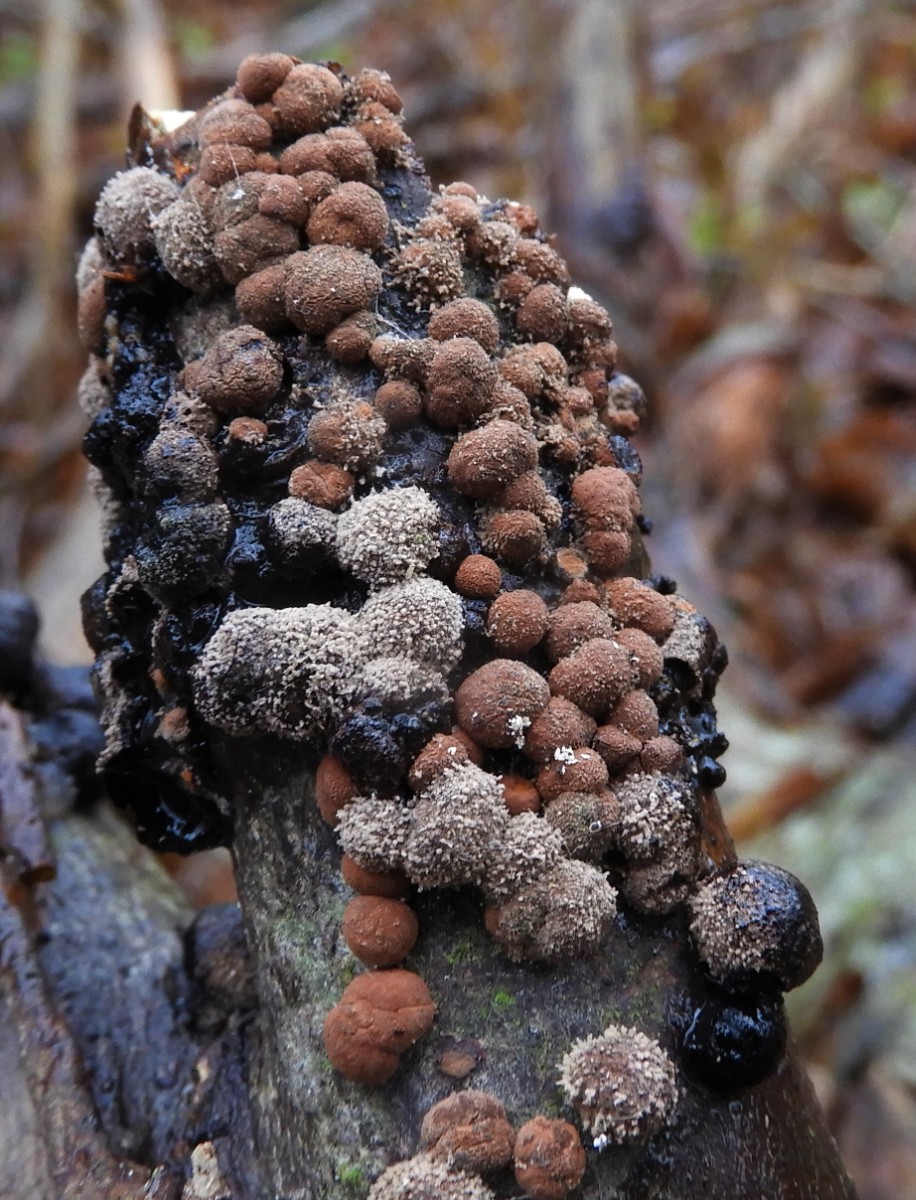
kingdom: Fungi
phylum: Ascomycota
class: Sordariomycetes
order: Xylariales
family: Hypoxylaceae
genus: Hypoxylon
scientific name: Hypoxylon fragiforme
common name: kuljordbær
